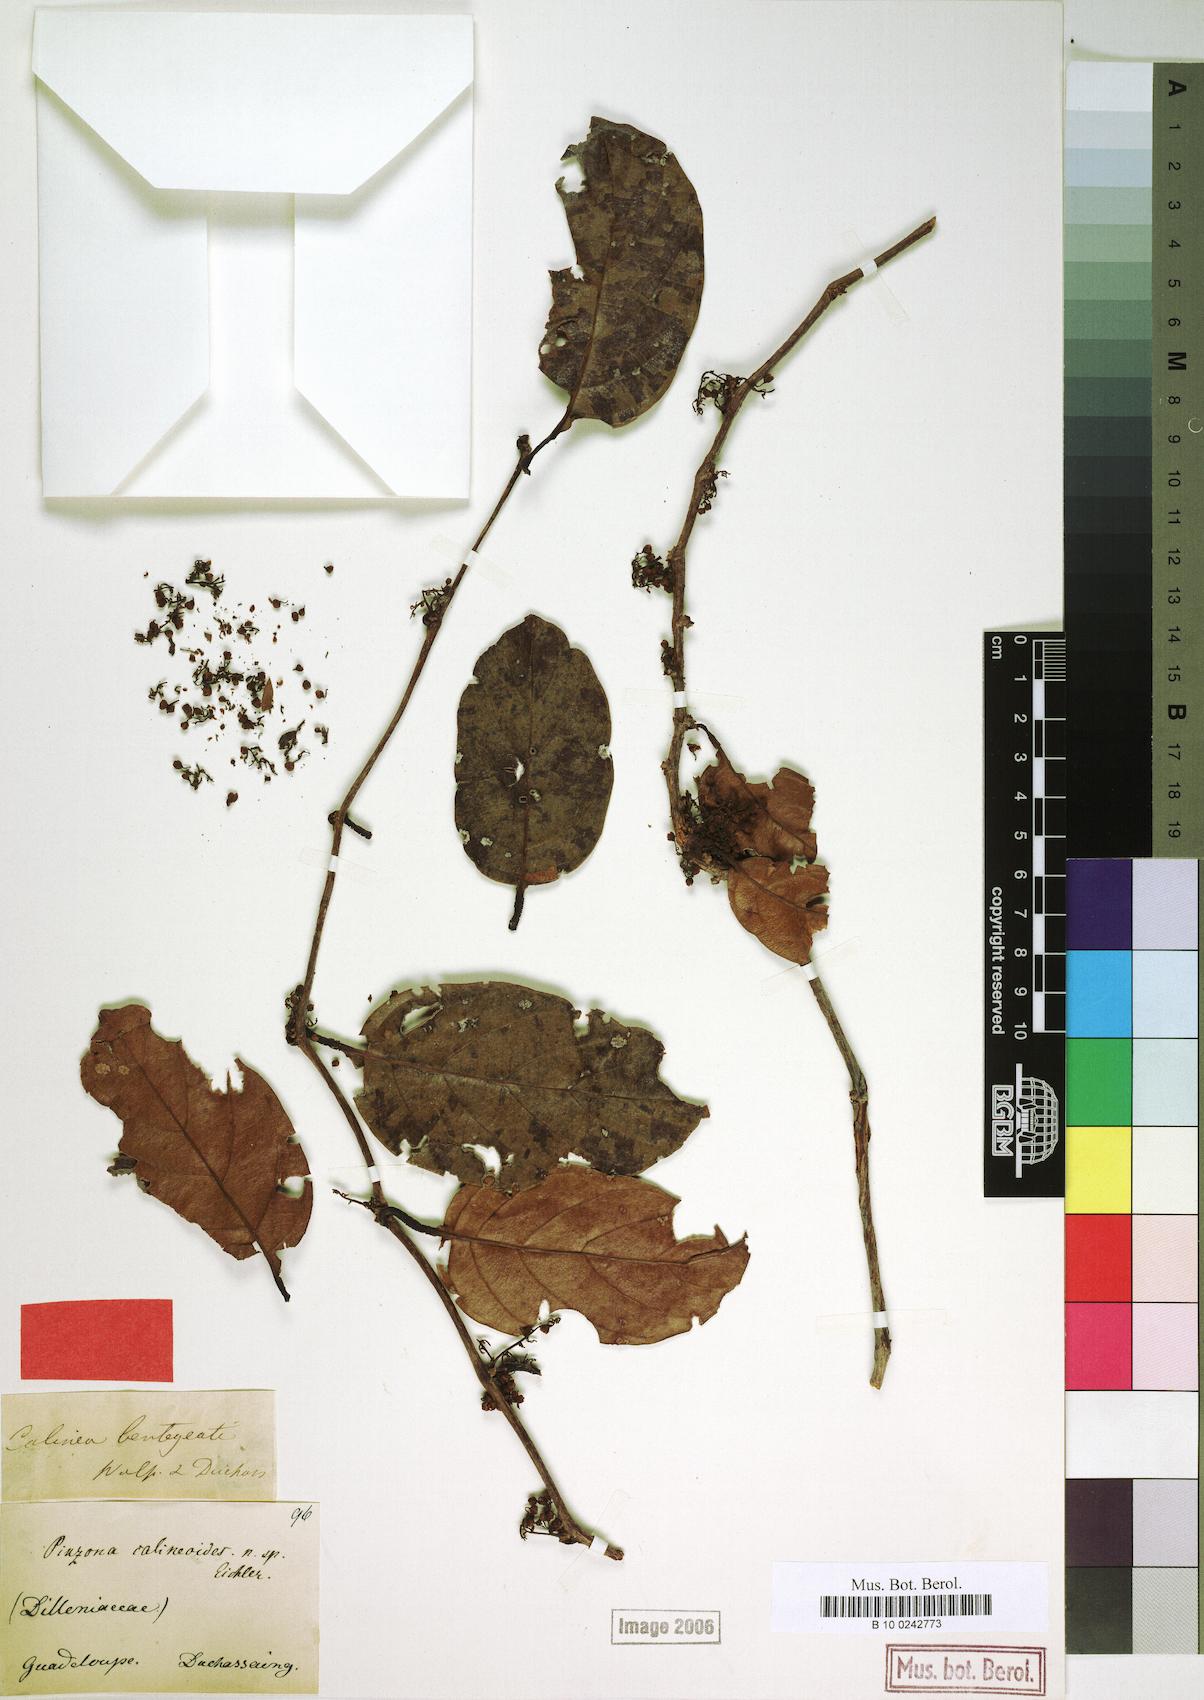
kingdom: Plantae
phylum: Tracheophyta
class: Magnoliopsida
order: Dilleniales
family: Dilleniaceae
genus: Pinzona
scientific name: Pinzona coriacea
